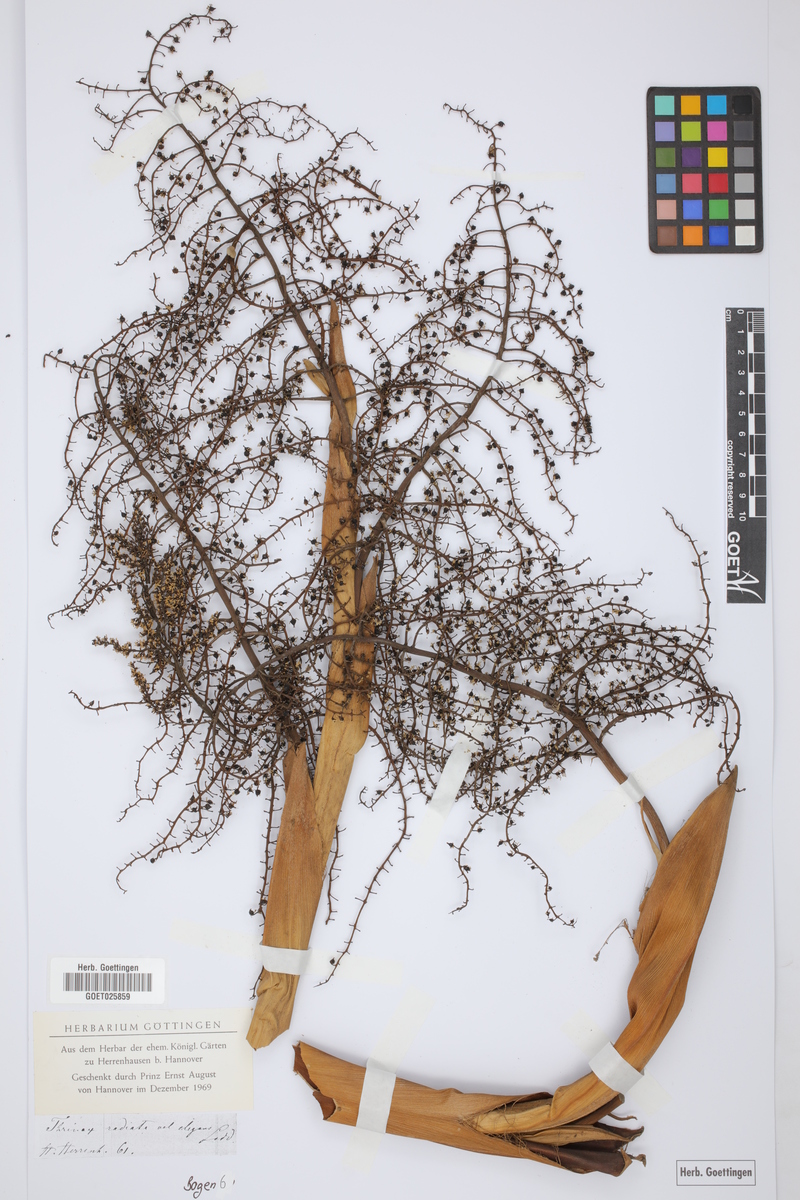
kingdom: Plantae
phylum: Tracheophyta
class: Liliopsida
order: Arecales
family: Arecaceae
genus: Thrinax
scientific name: Thrinax radiata
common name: Florida thatch
